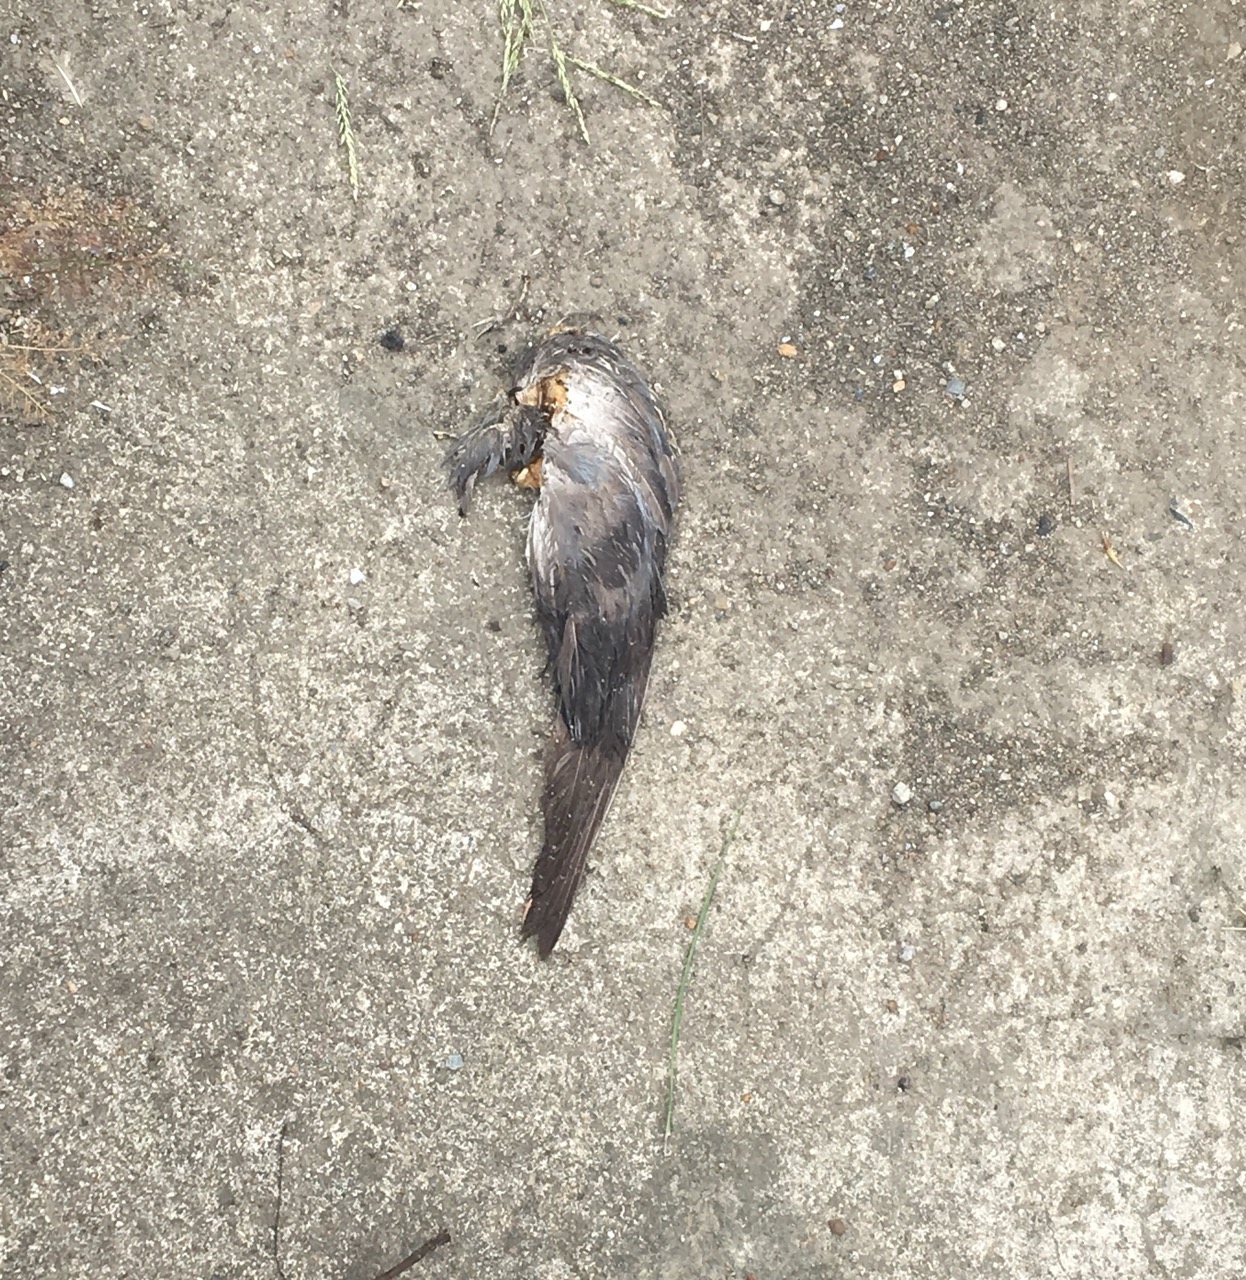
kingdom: Animalia
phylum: Chordata
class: Aves
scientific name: Aves
